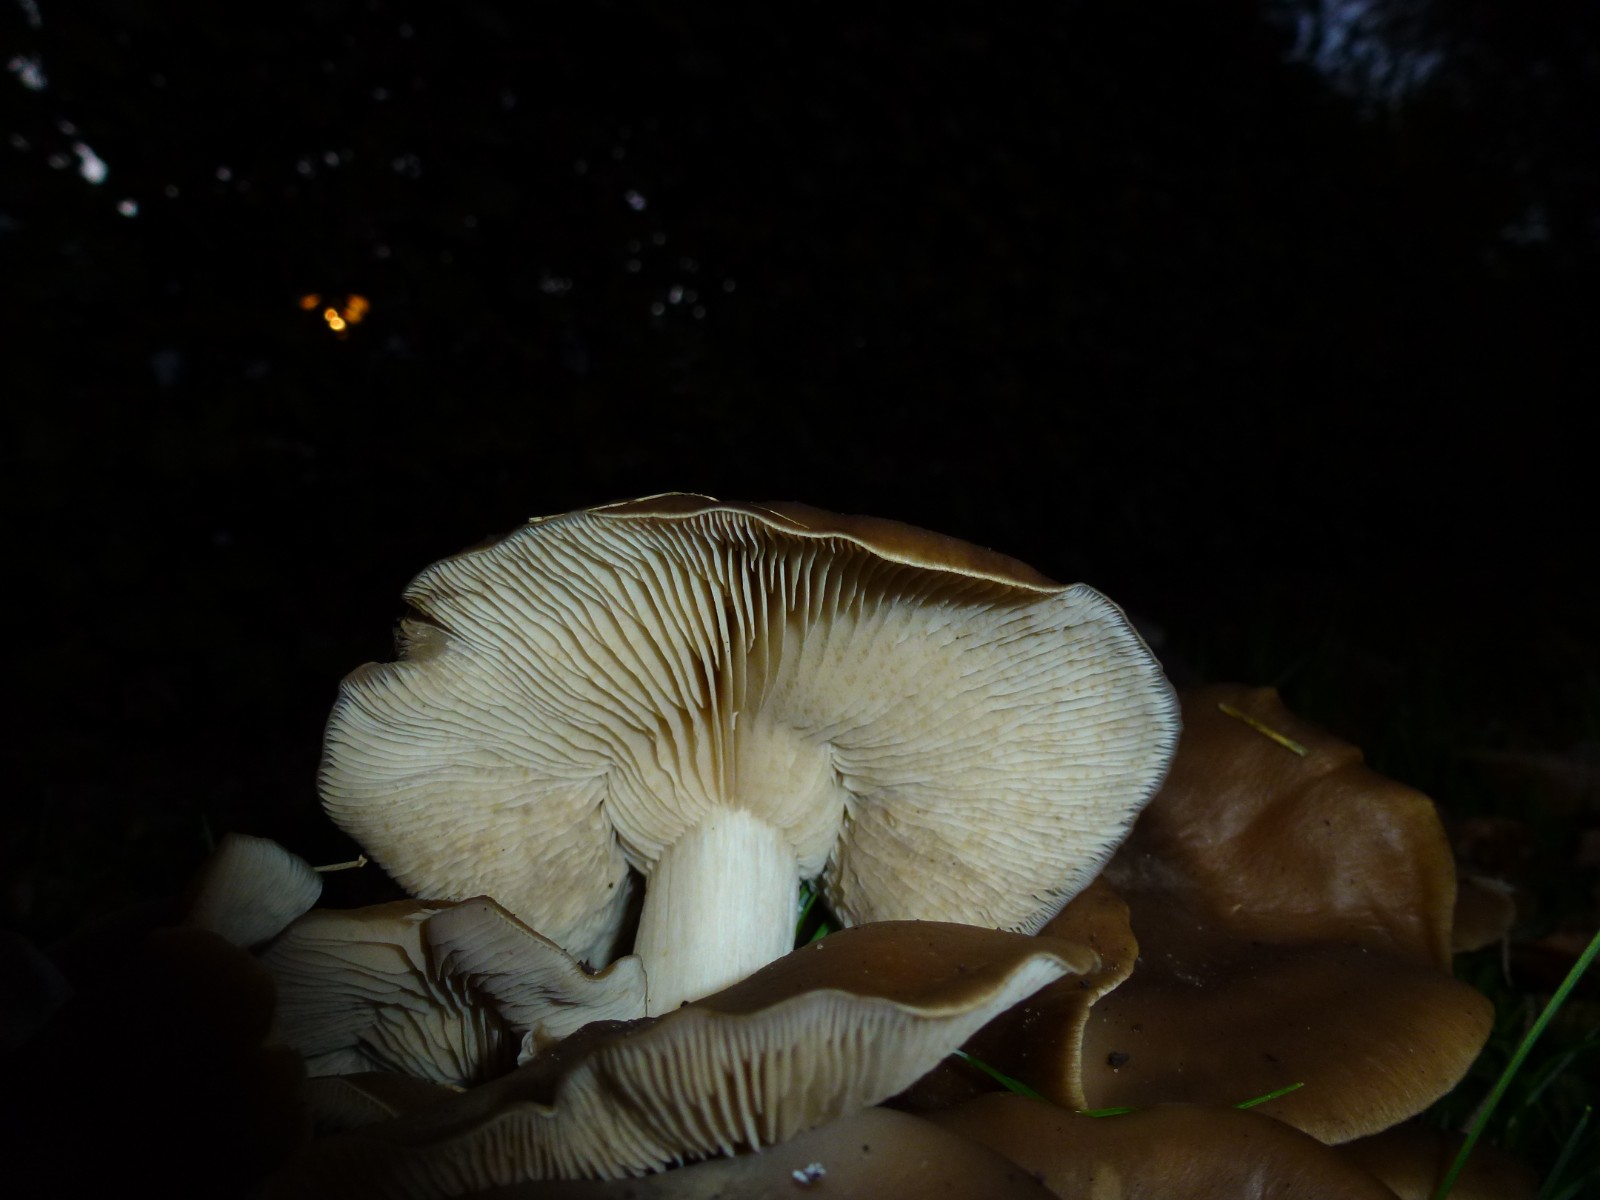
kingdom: Fungi
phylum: Basidiomycota
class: Agaricomycetes
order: Agaricales
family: Lyophyllaceae
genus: Lyophyllum
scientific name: Lyophyllum decastes
